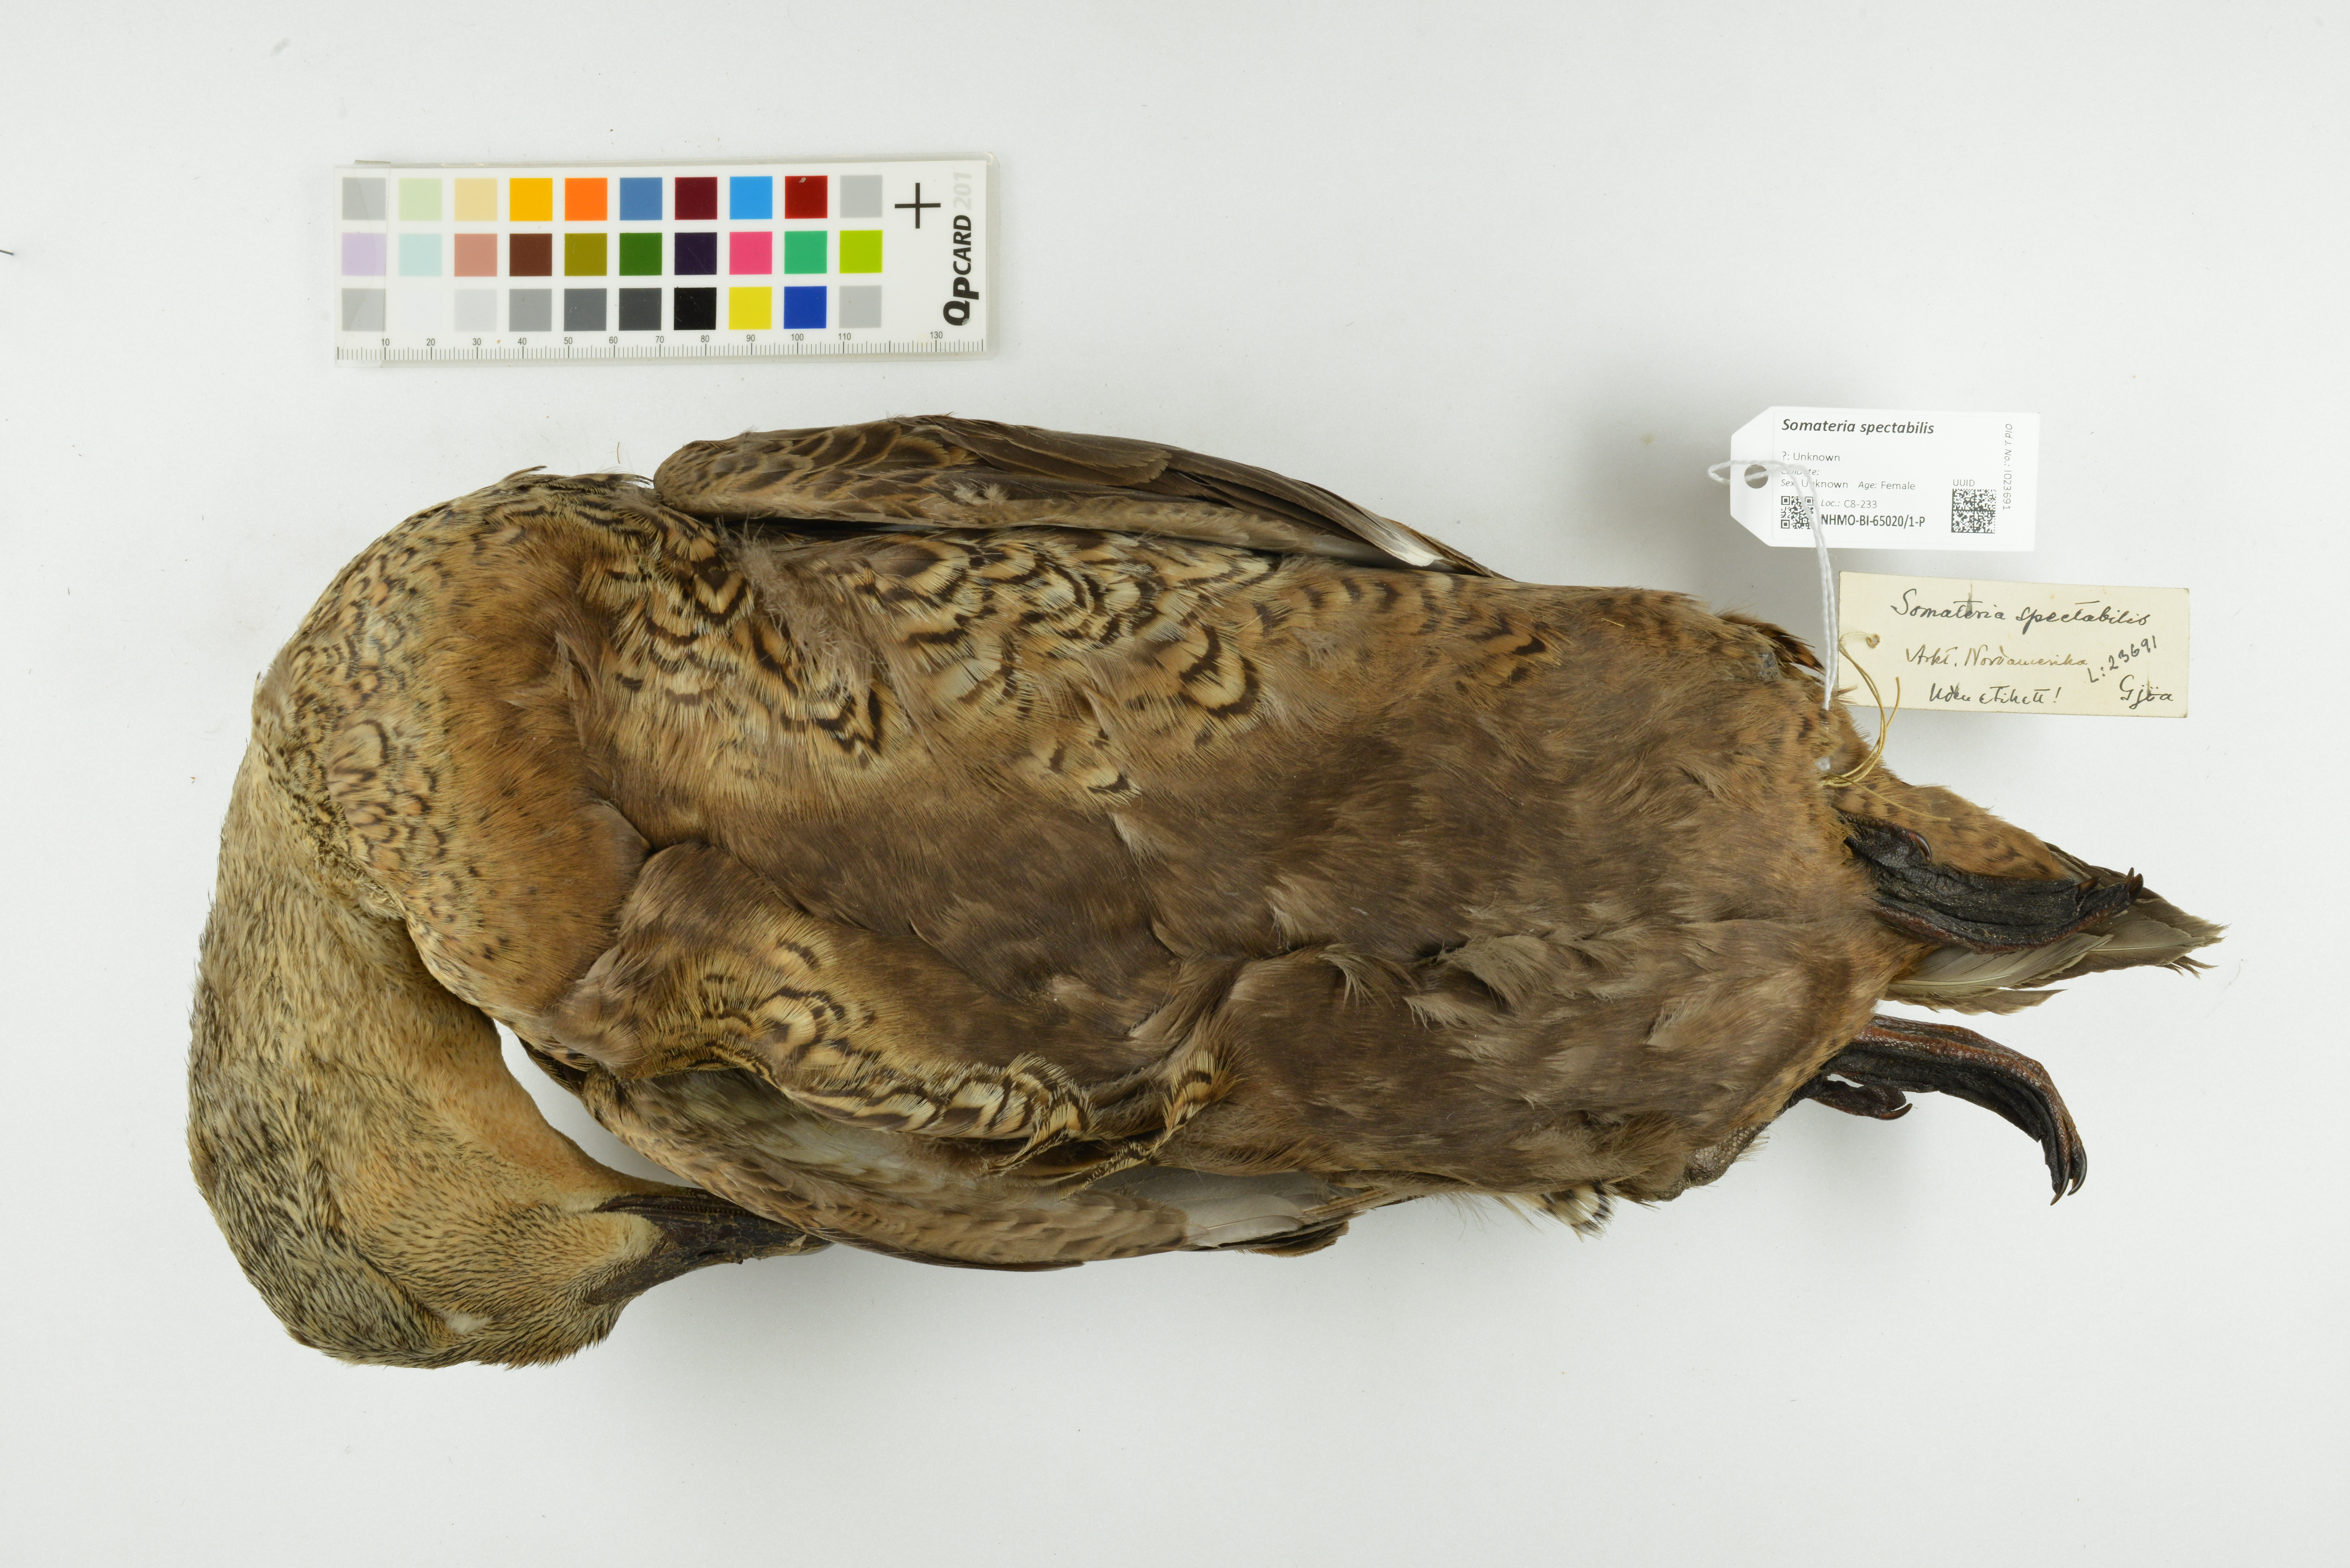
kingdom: Animalia
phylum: Chordata
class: Aves
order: Anseriformes
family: Anatidae
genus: Somateria
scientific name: Somateria spectabilis
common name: King eider
